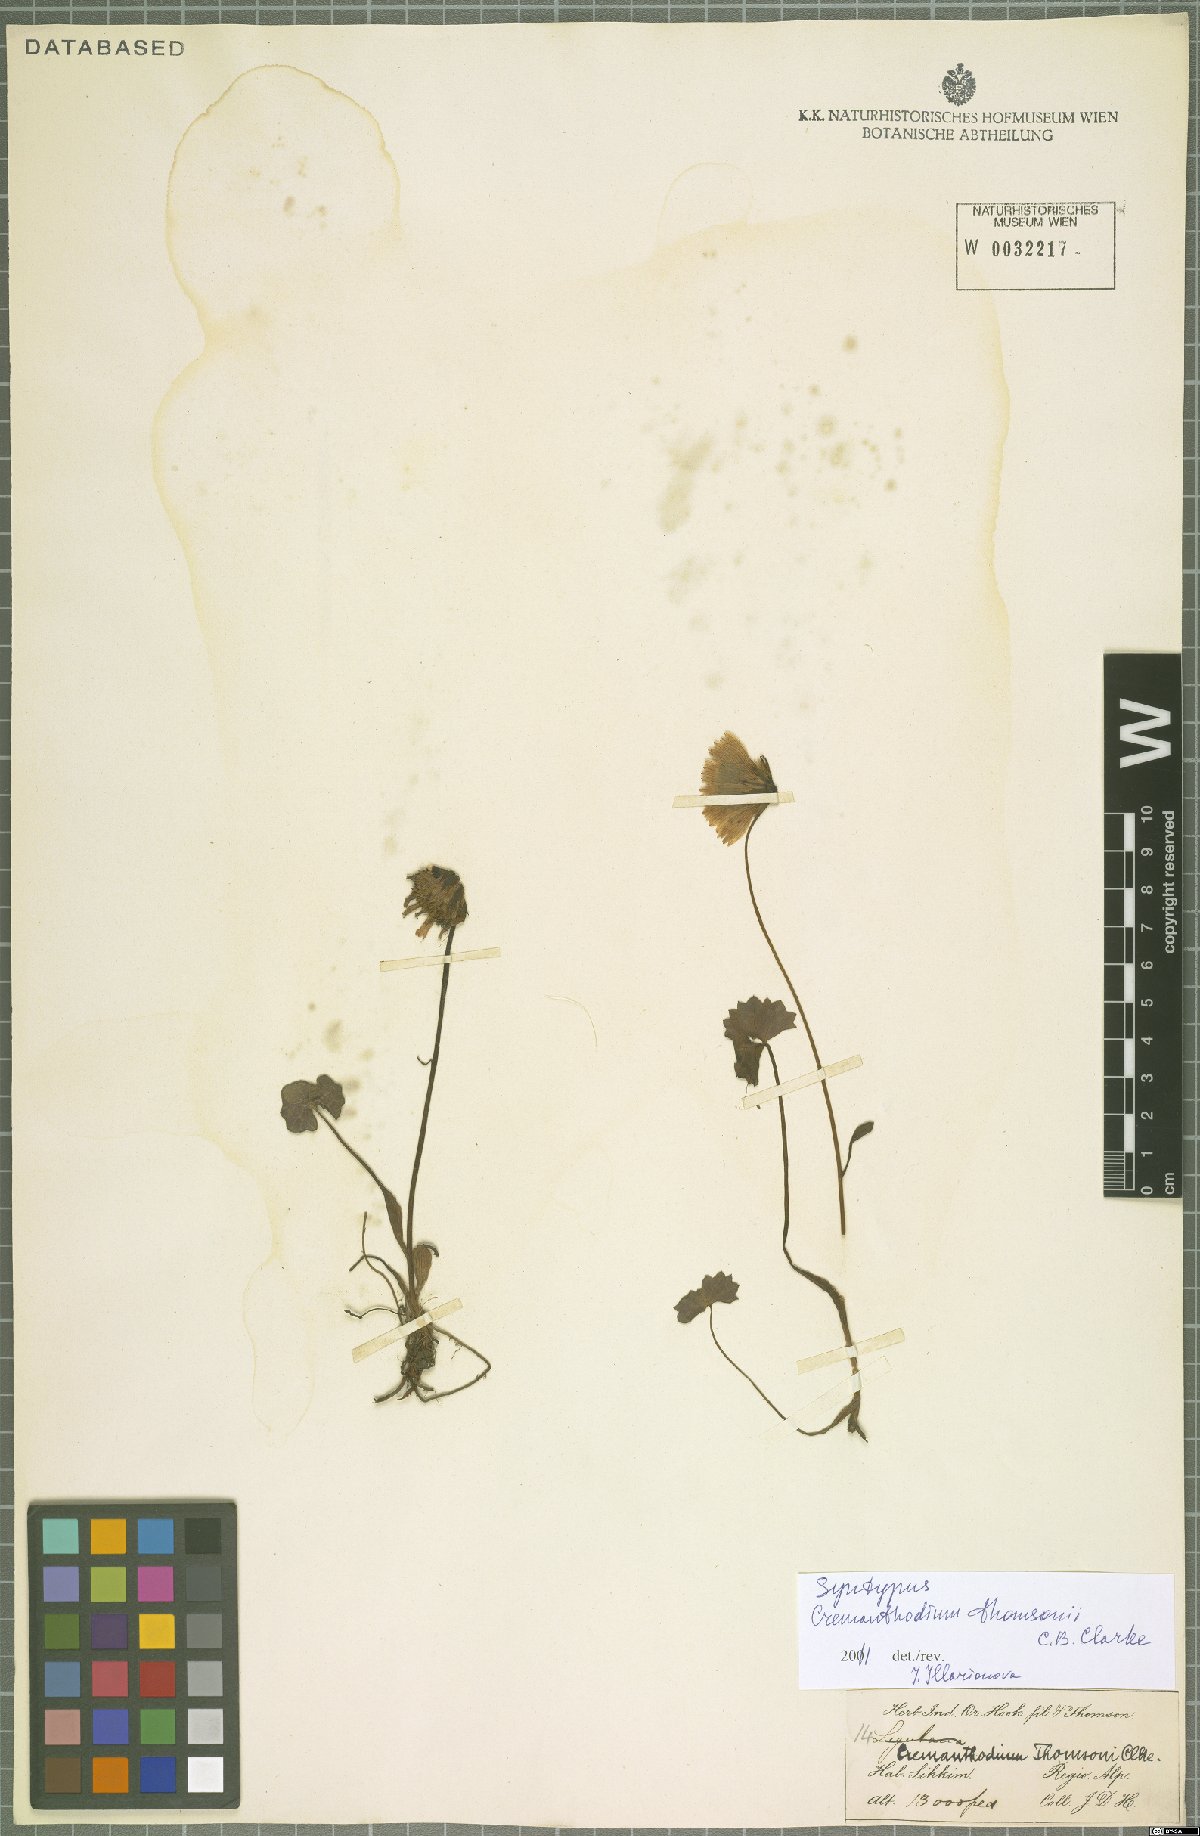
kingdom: Plantae
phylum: Tracheophyta
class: Magnoliopsida
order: Asterales
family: Asteraceae
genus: Cremanthodium
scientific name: Cremanthodium thomsonii
